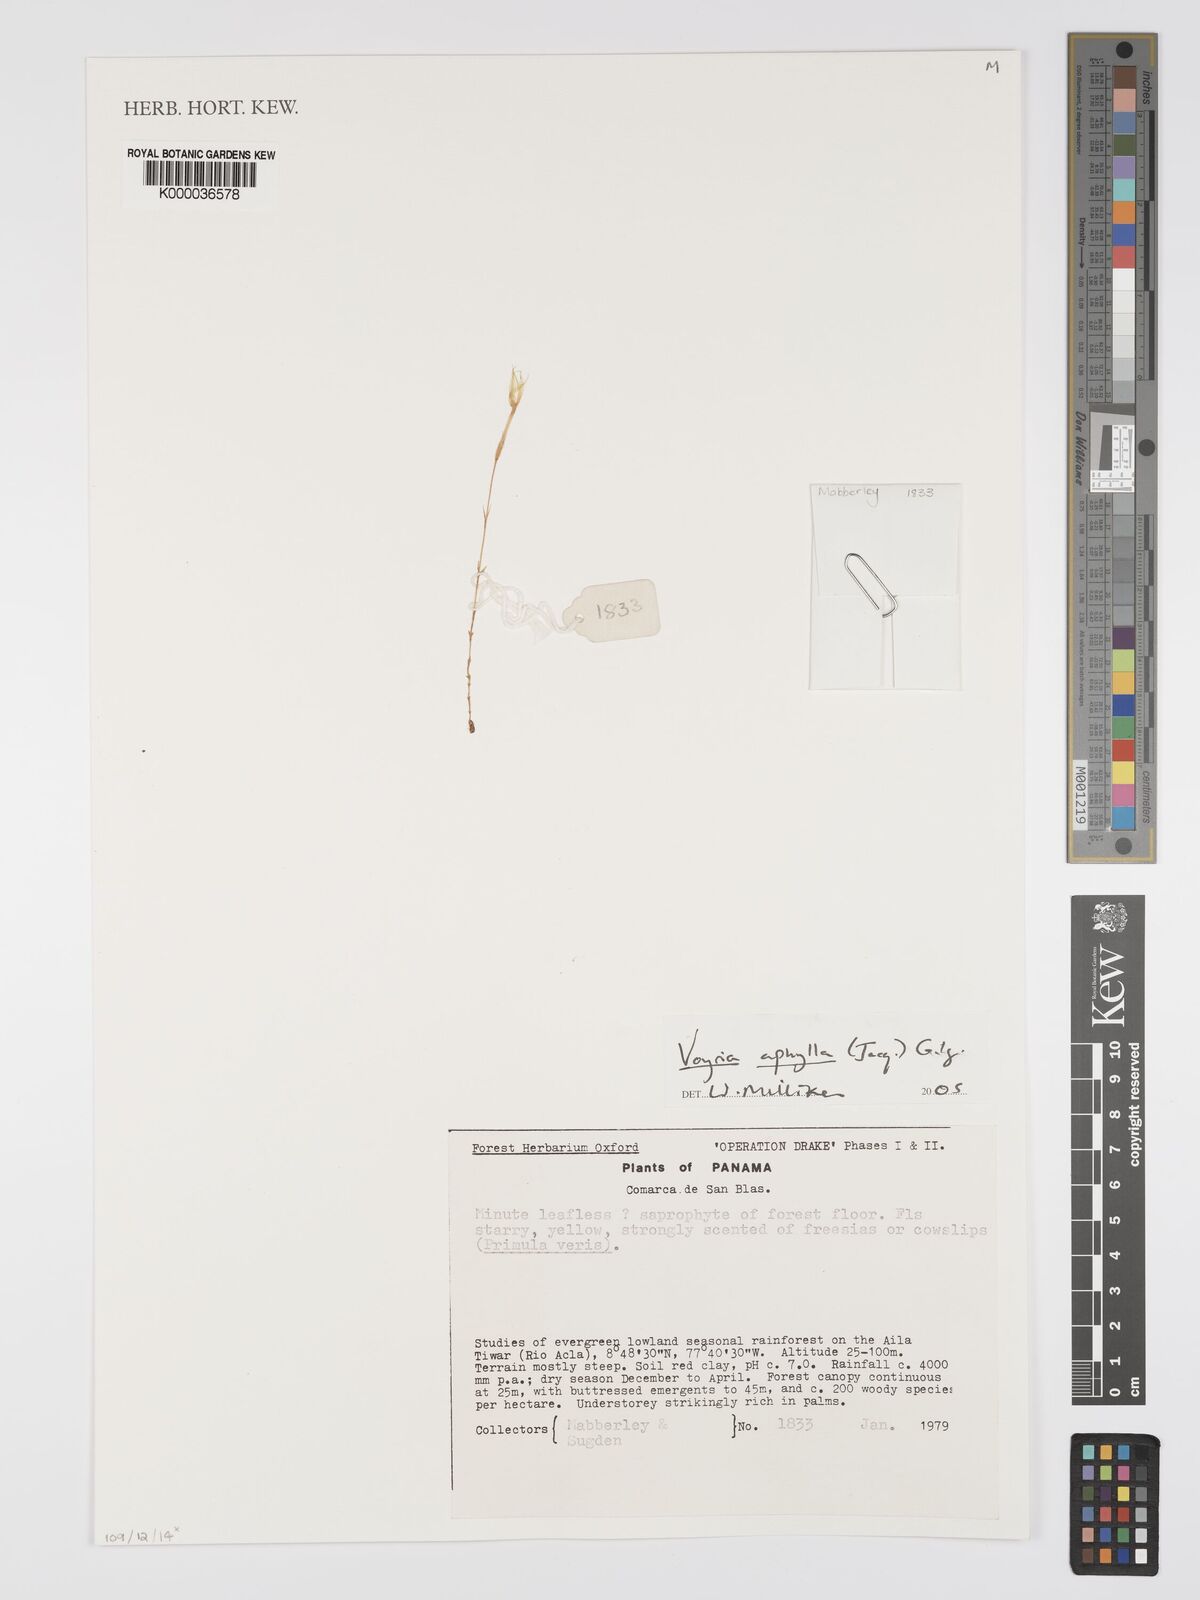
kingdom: Plantae
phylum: Tracheophyta
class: Magnoliopsida
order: Gentianales
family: Gentianaceae
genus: Voyria
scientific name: Voyria
